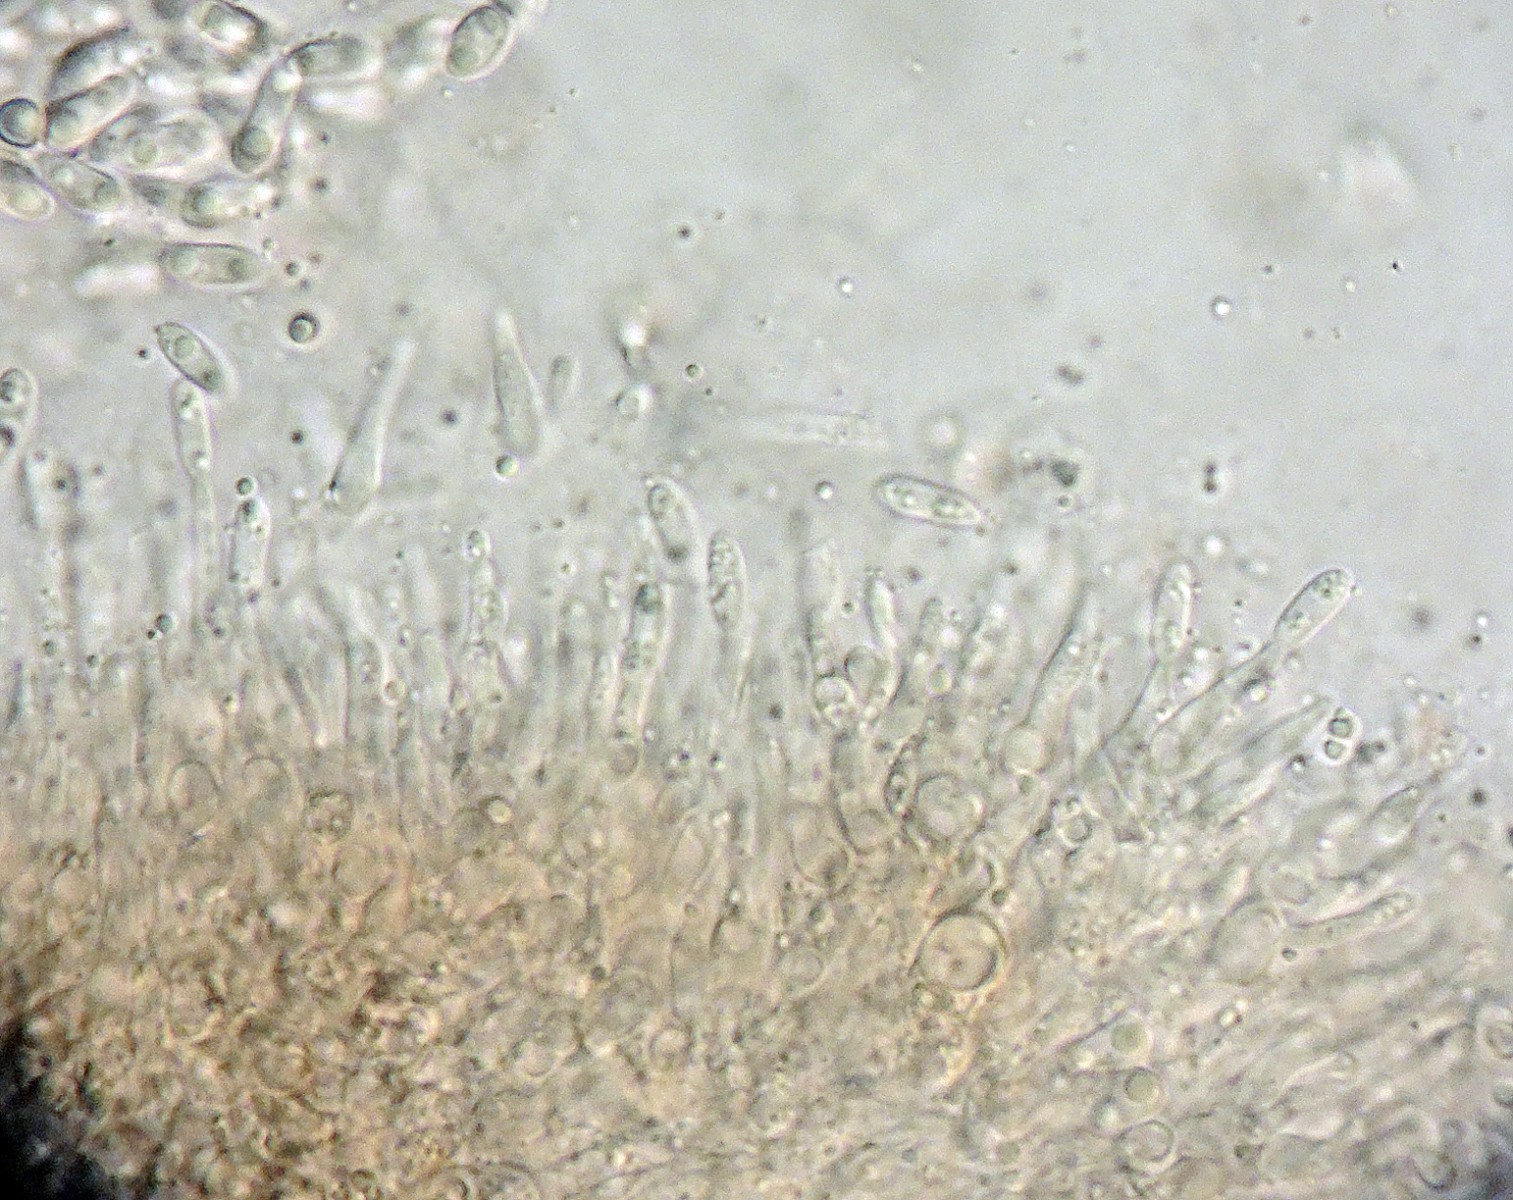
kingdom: Fungi
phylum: Ascomycota
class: Sordariomycetes
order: Diaporthales
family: Diaporthaceae
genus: Phomopsis
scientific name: Phomopsis convallariae
